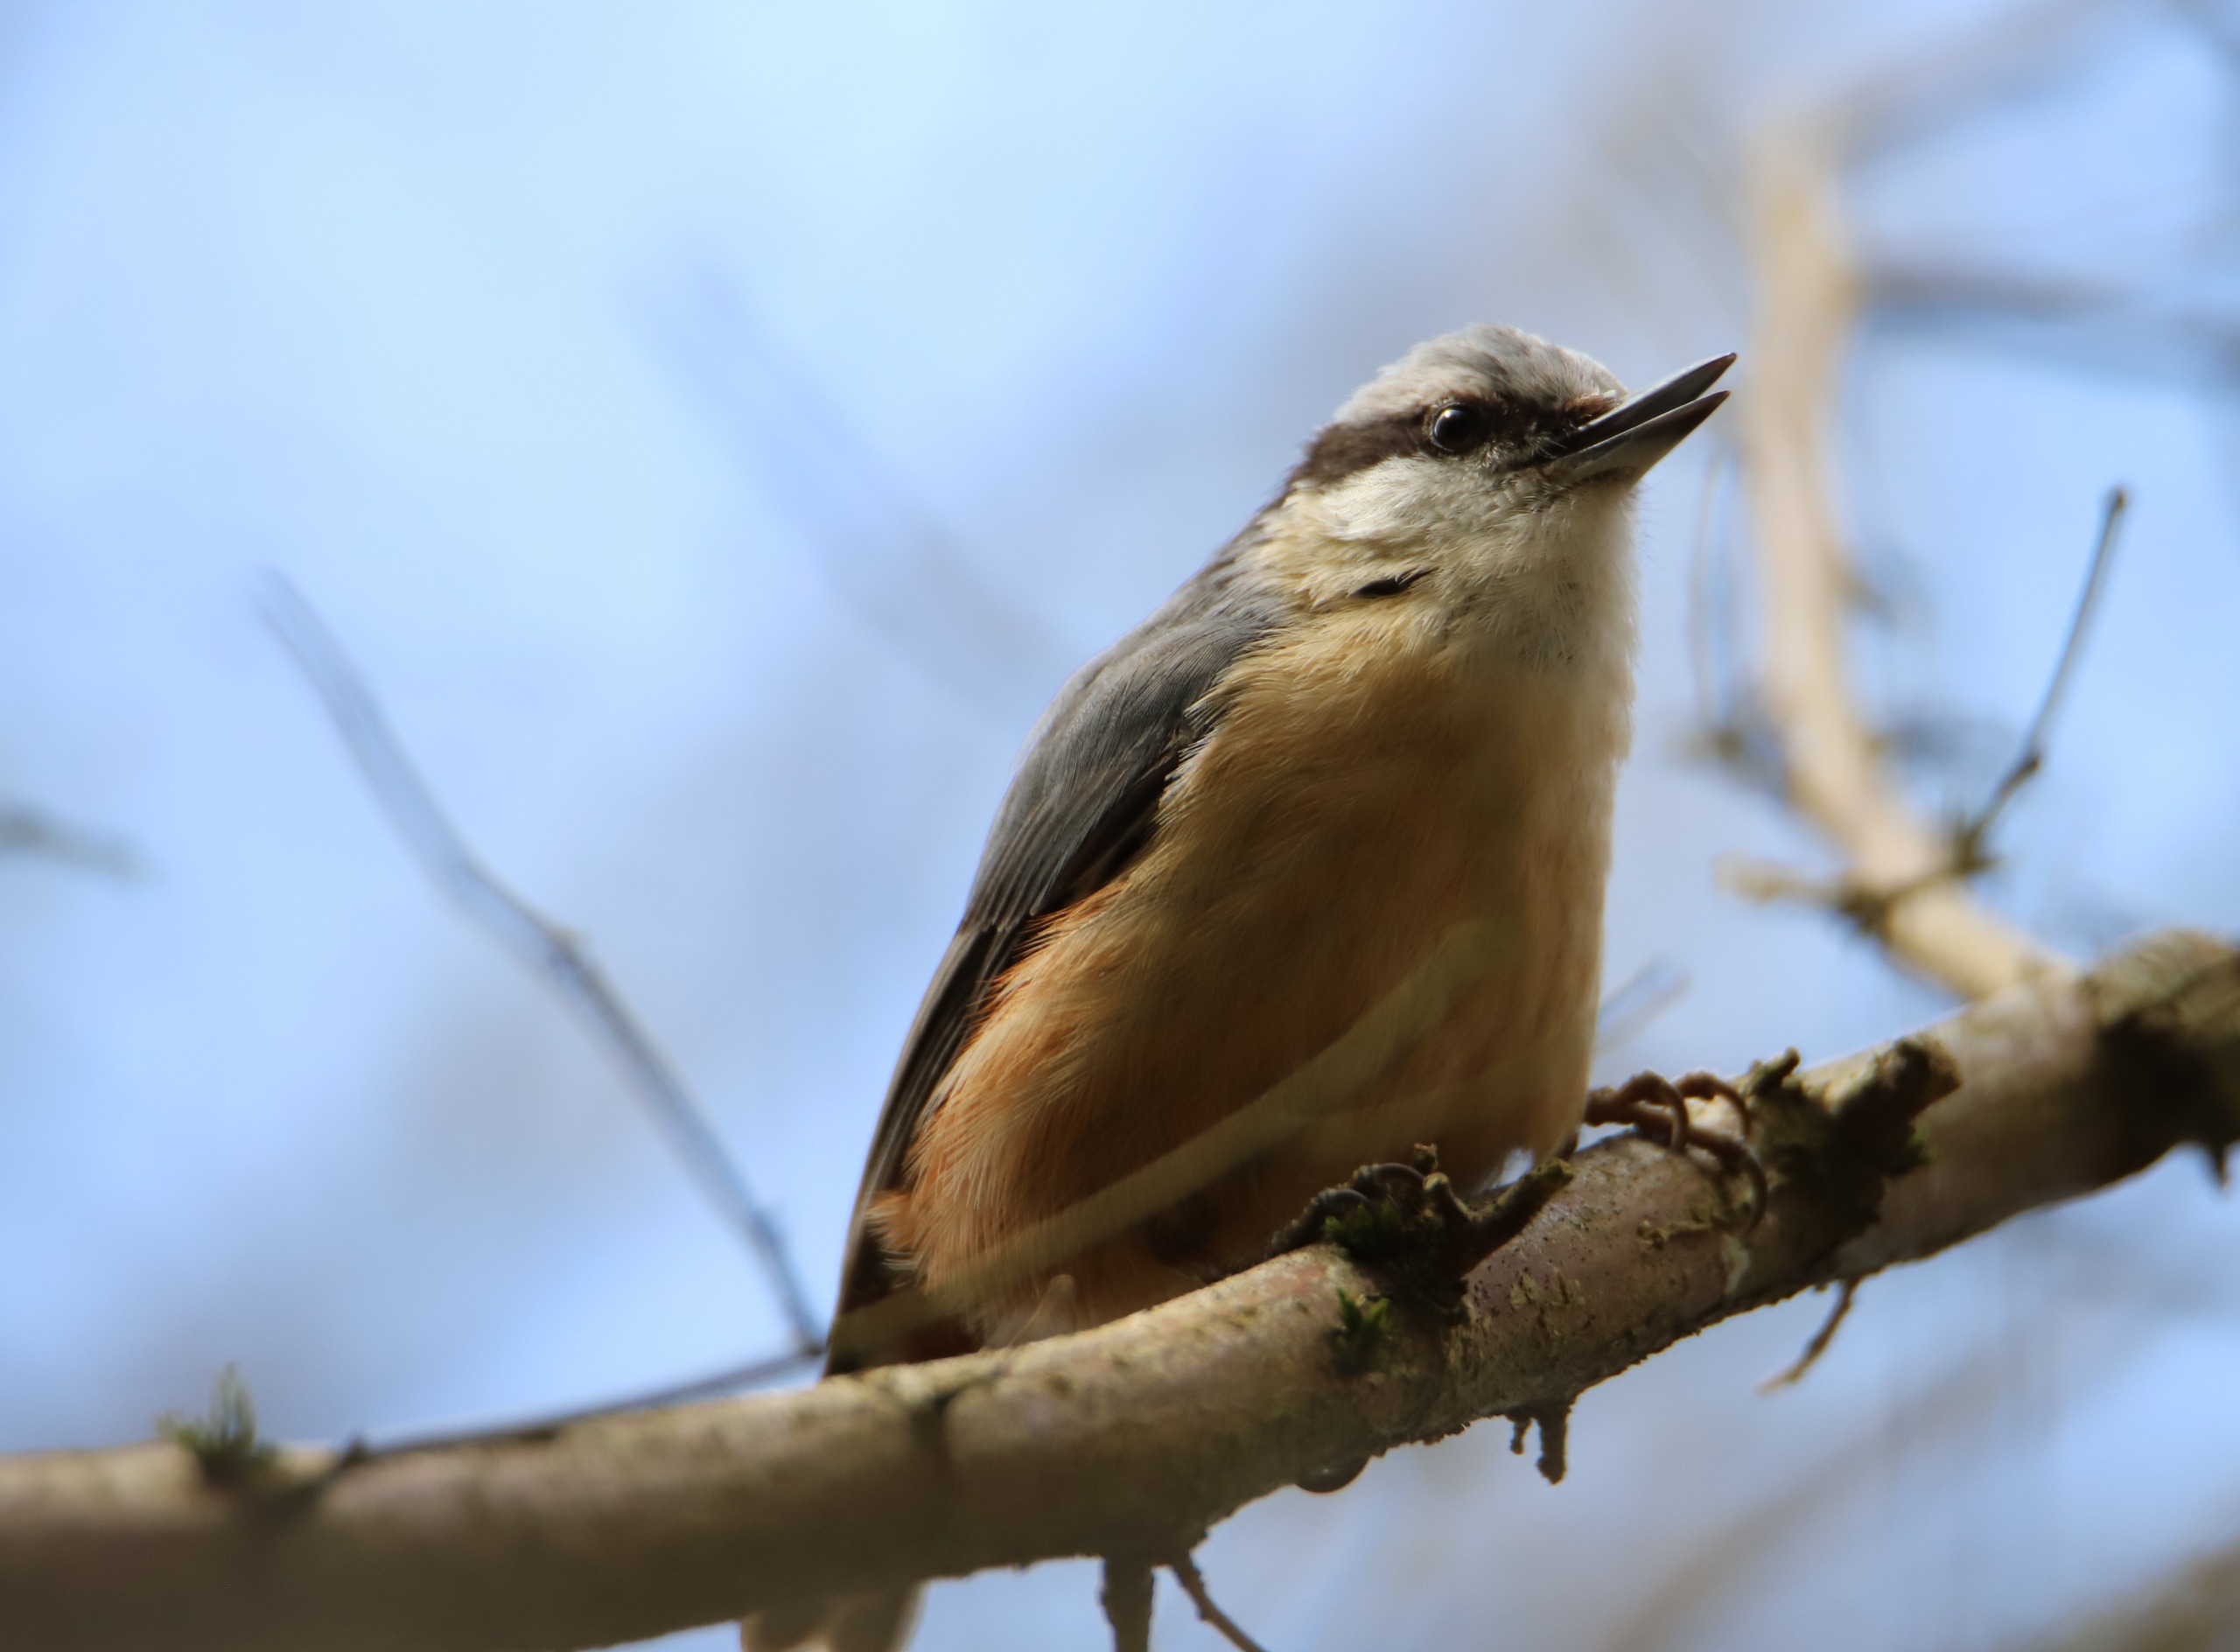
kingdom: Animalia
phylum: Chordata
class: Aves
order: Passeriformes
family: Sittidae
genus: Sitta
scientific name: Sitta europaea
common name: Spætmejse
